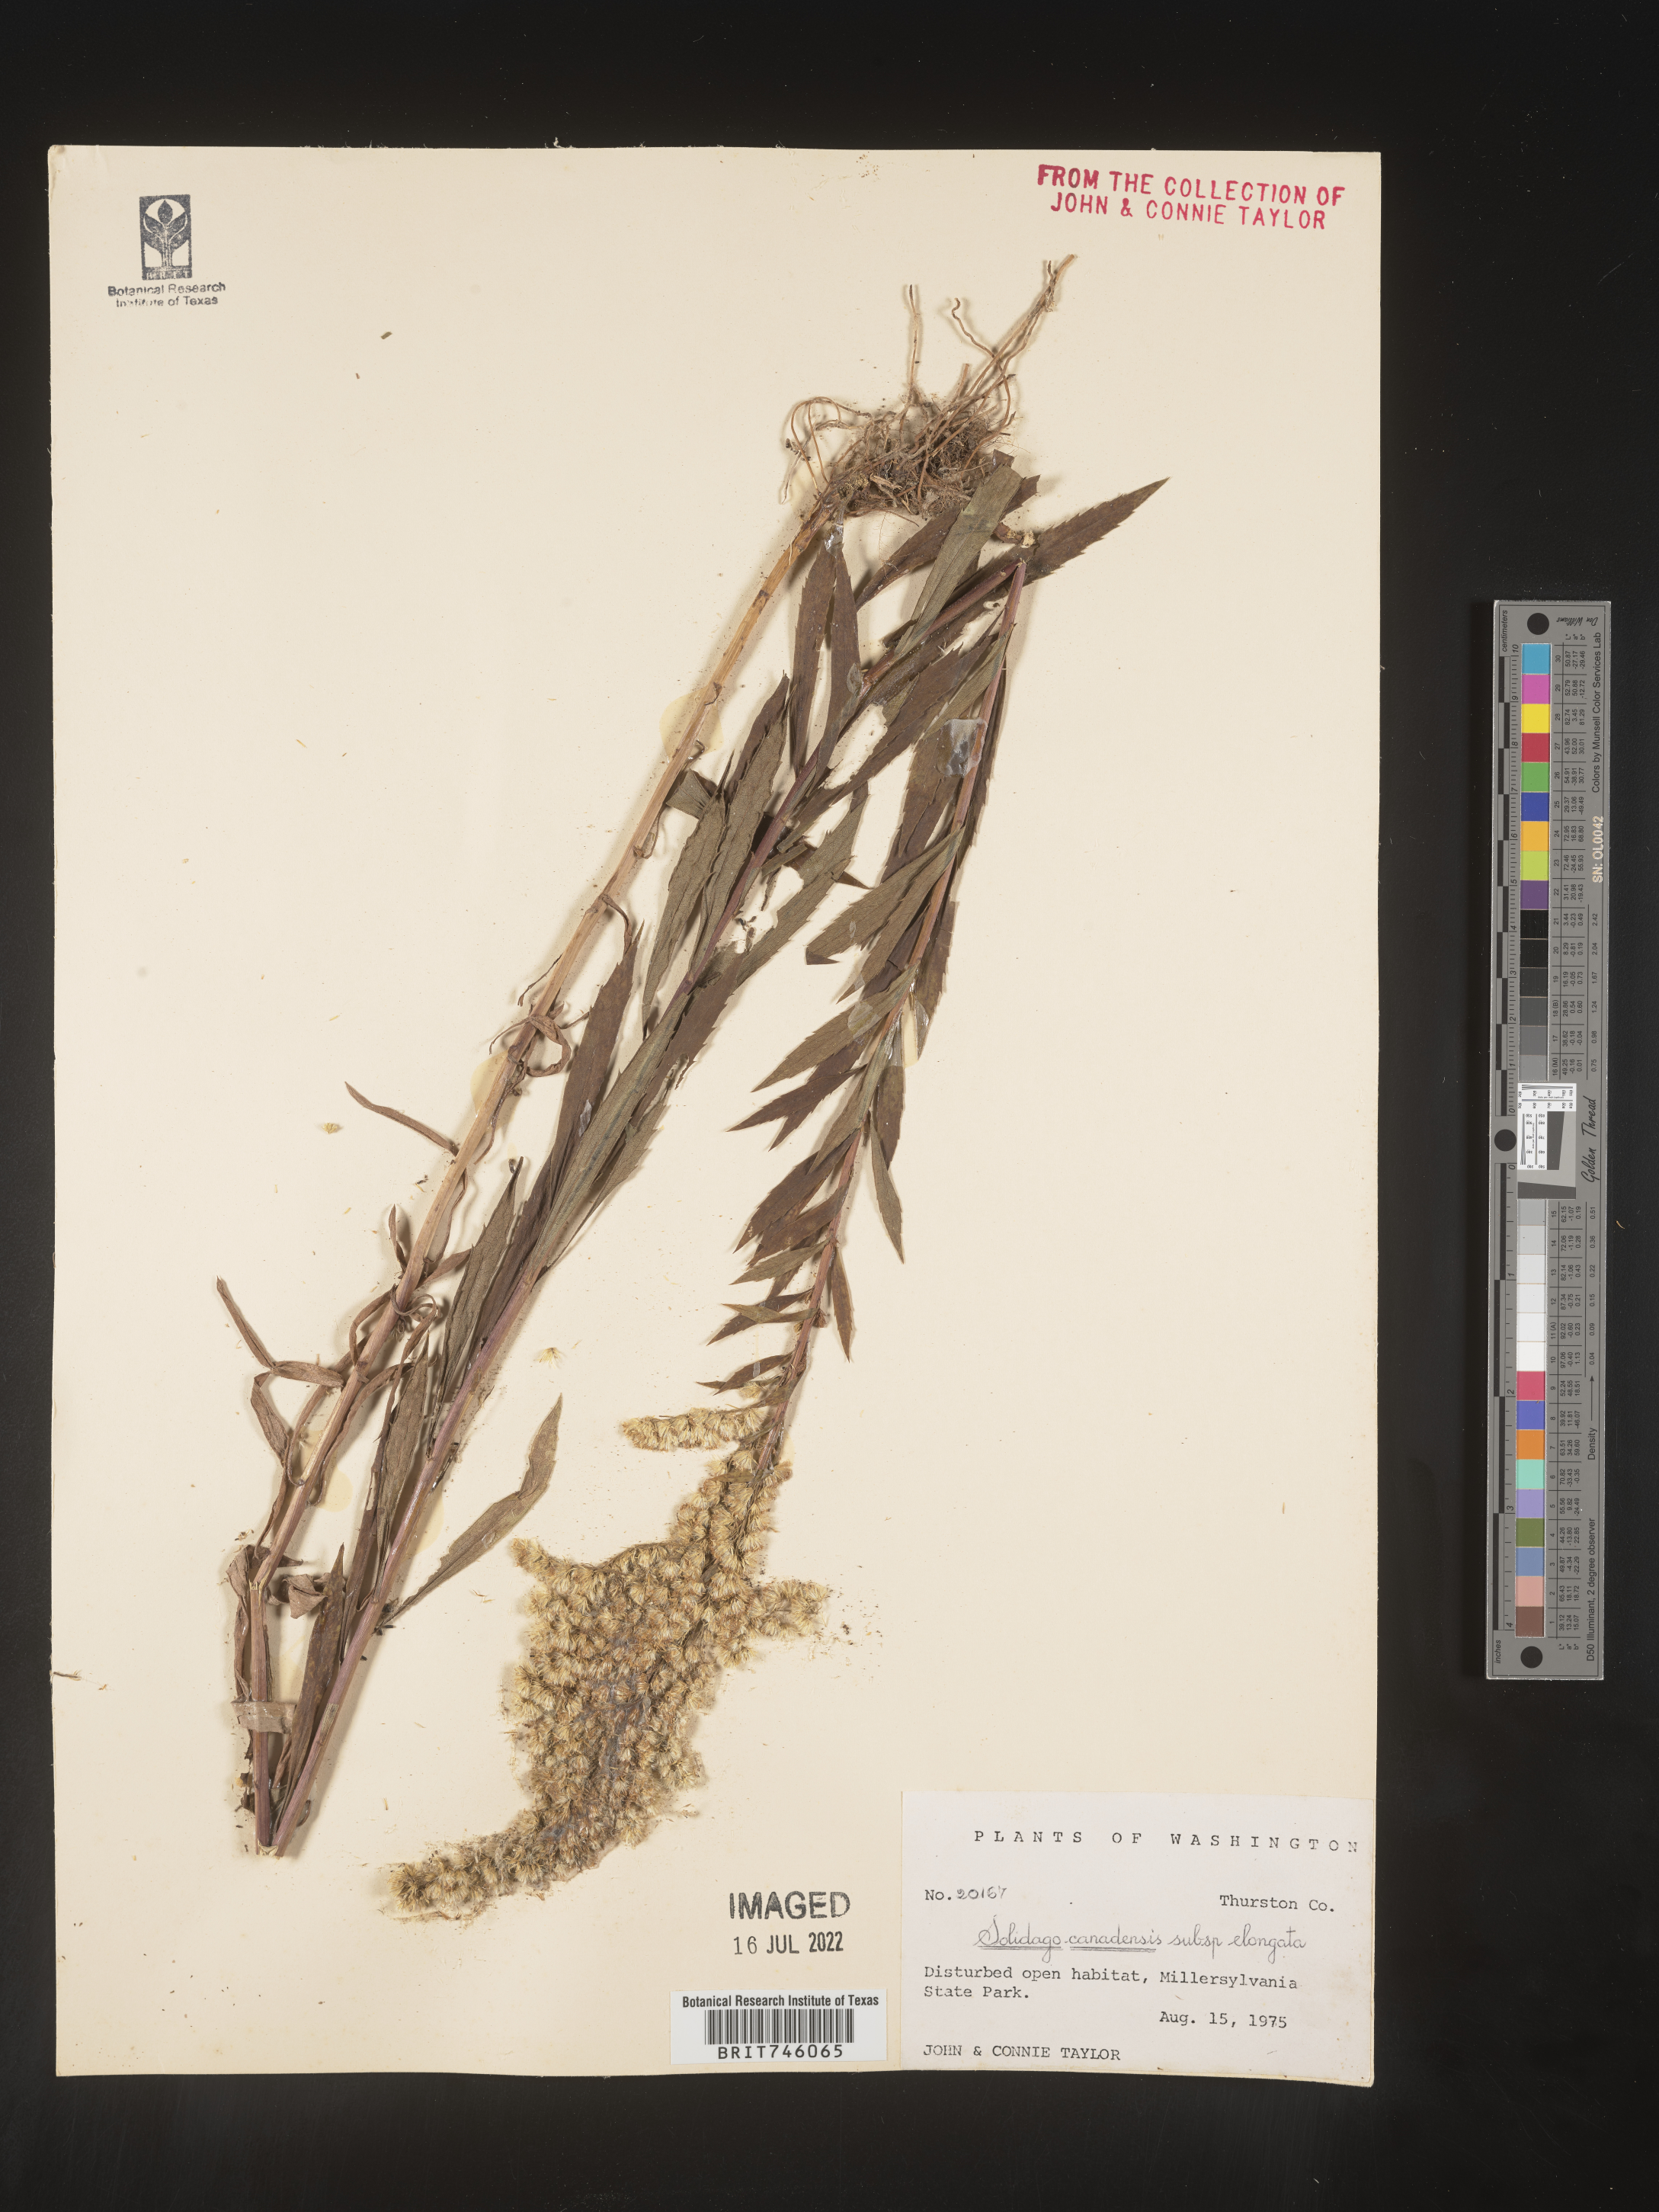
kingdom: Plantae
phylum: Tracheophyta
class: Magnoliopsida
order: Asterales
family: Asteraceae
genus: Solidago
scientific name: Solidago elongata
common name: Cascade canada goldenrod
